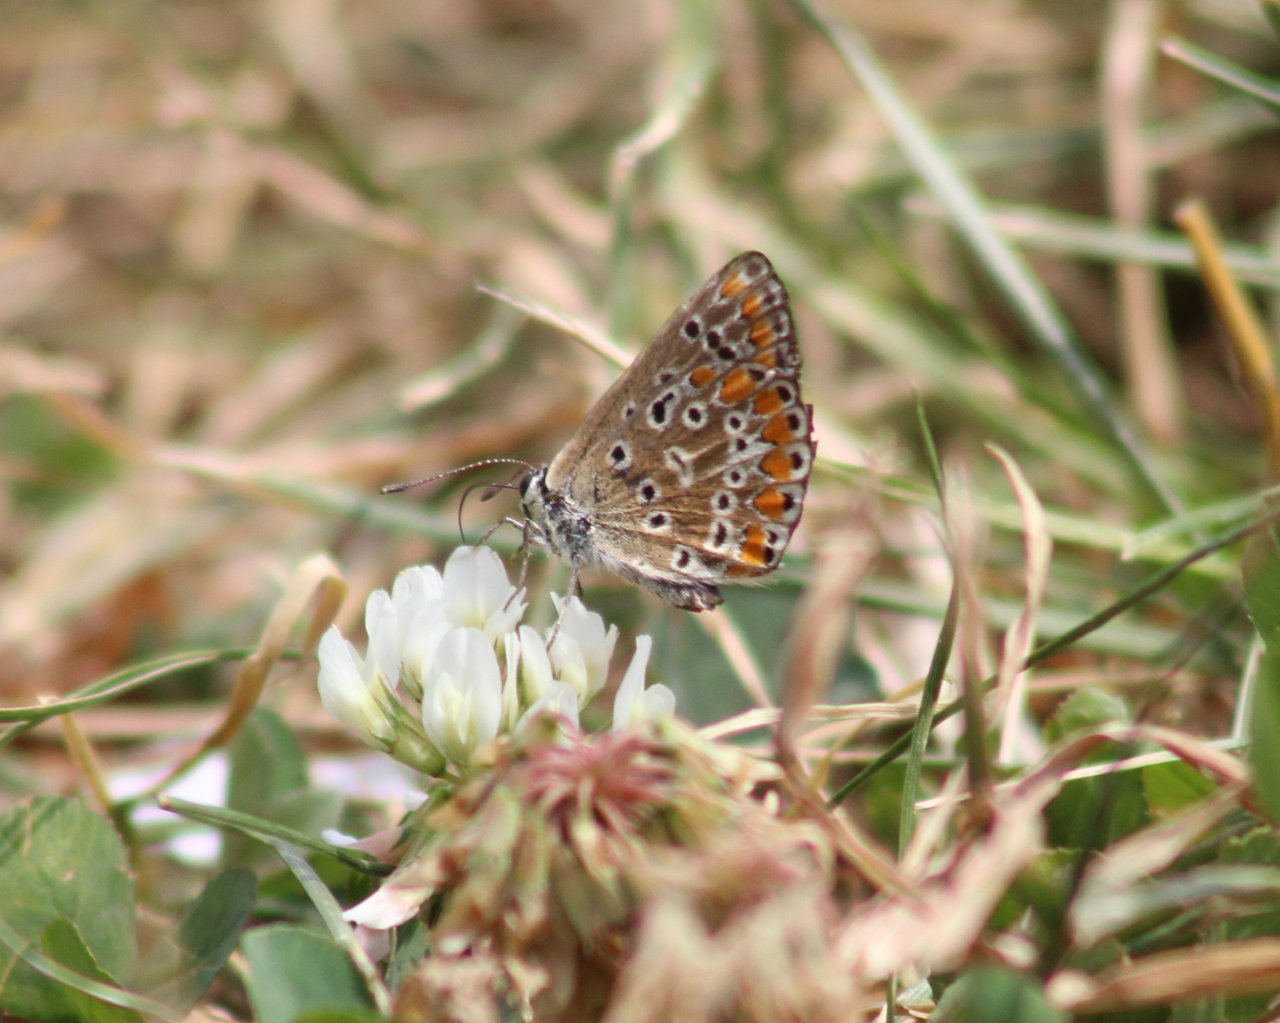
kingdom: Animalia
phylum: Arthropoda
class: Insecta
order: Lepidoptera
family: Lycaenidae
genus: Polyommatus
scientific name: Polyommatus icarus
